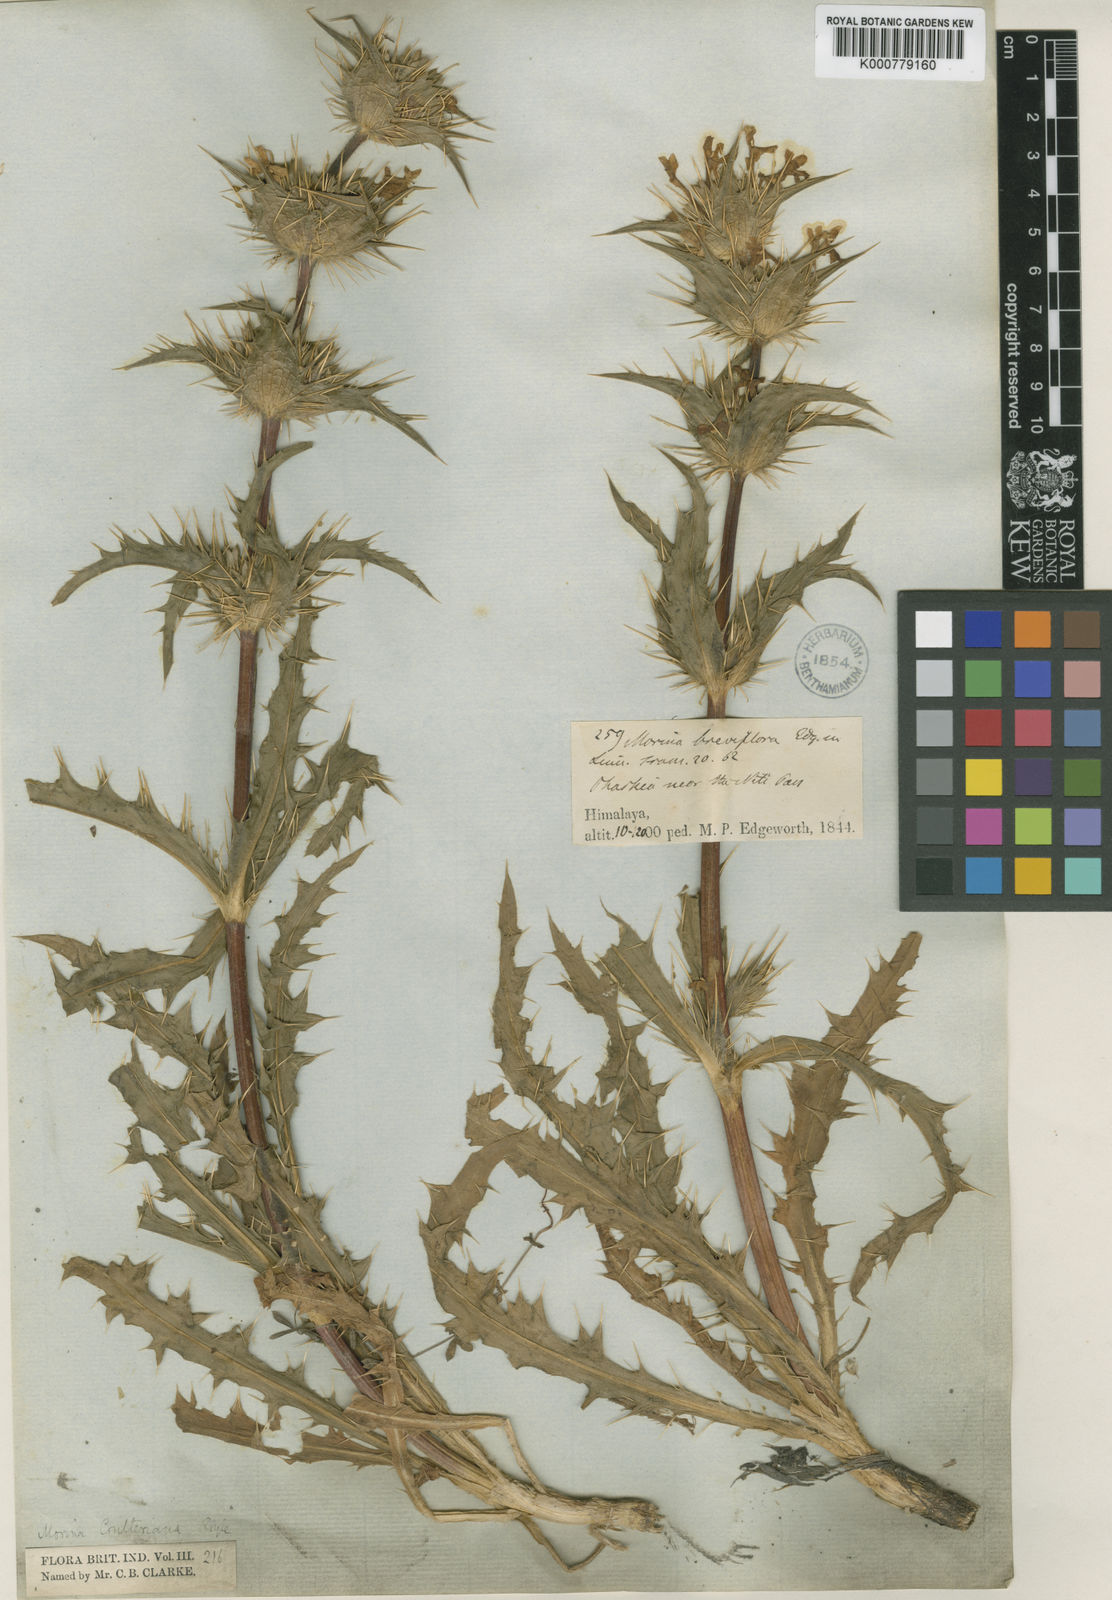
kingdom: Plantae
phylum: Tracheophyta
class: Magnoliopsida
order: Dipsacales
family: Caprifoliaceae
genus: Morina
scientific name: Morina coulteriana
